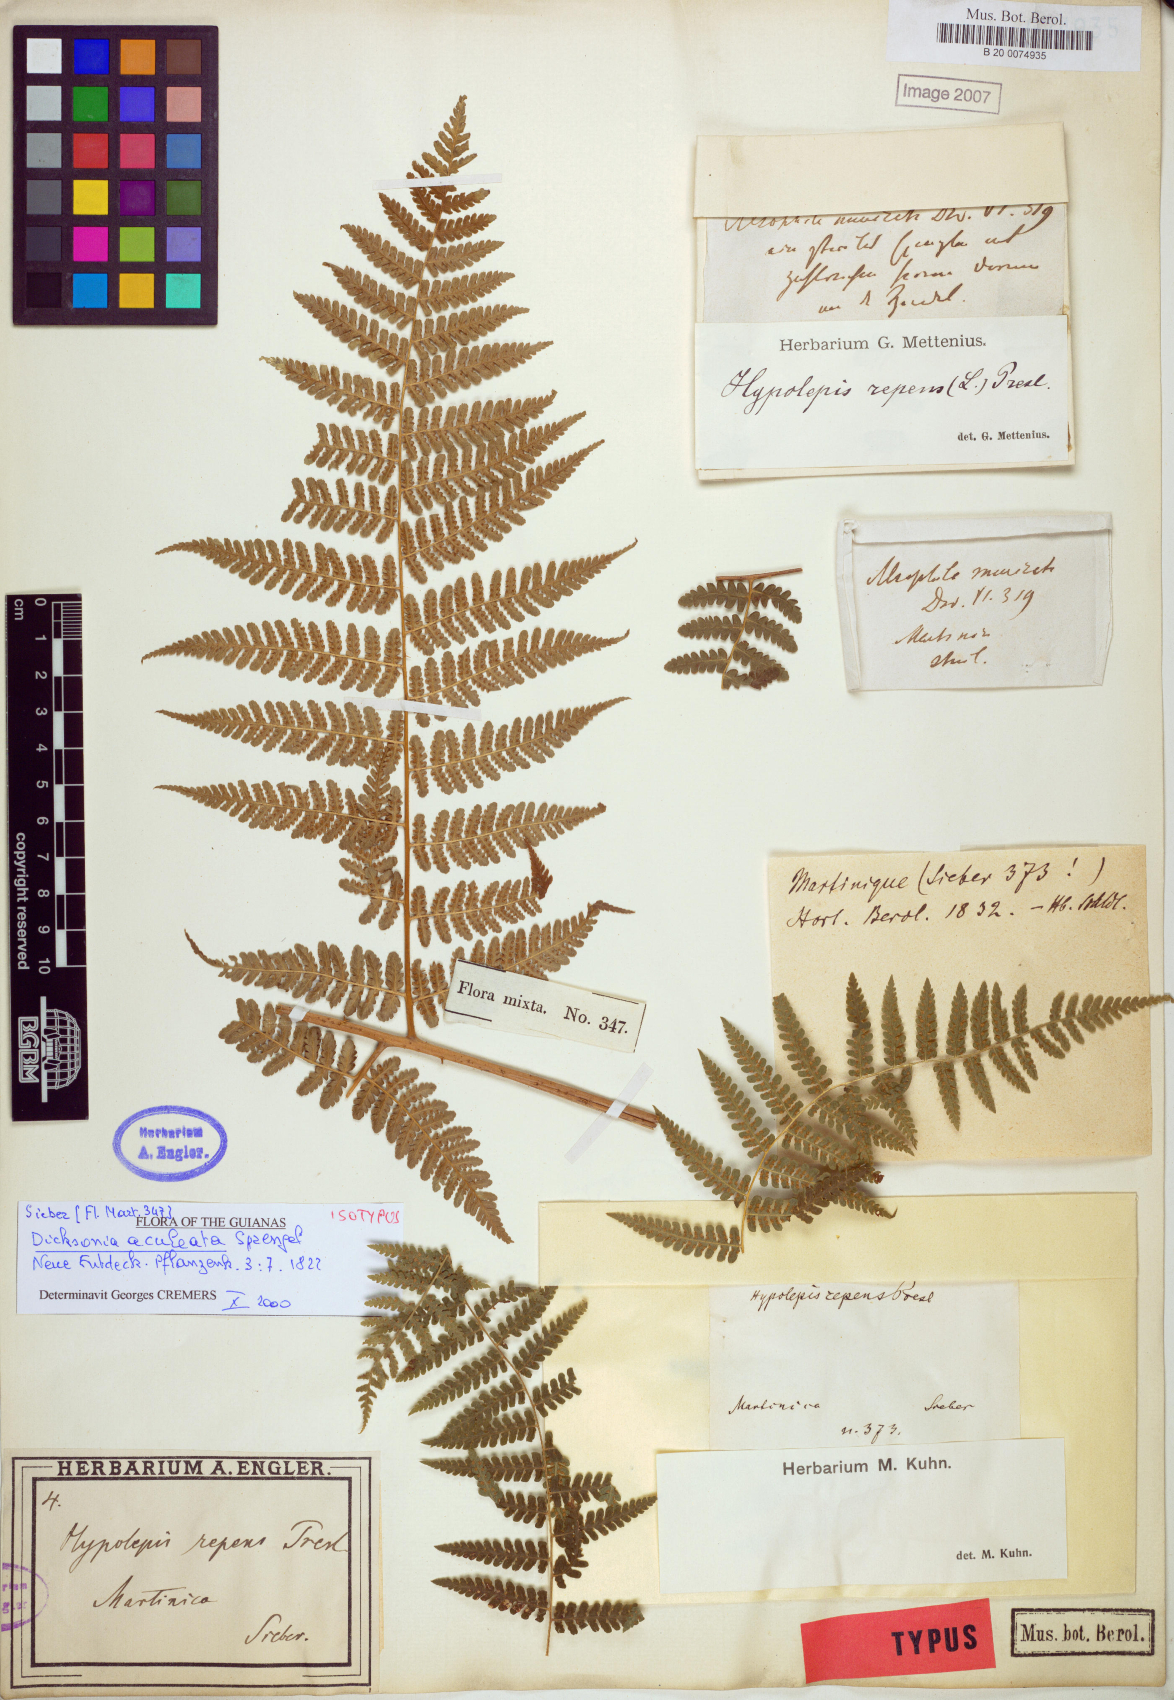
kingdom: Plantae
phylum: Tracheophyta
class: Polypodiopsida
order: Polypodiales
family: Dennstaedtiaceae
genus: Hypolepis
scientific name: Hypolepis repens
